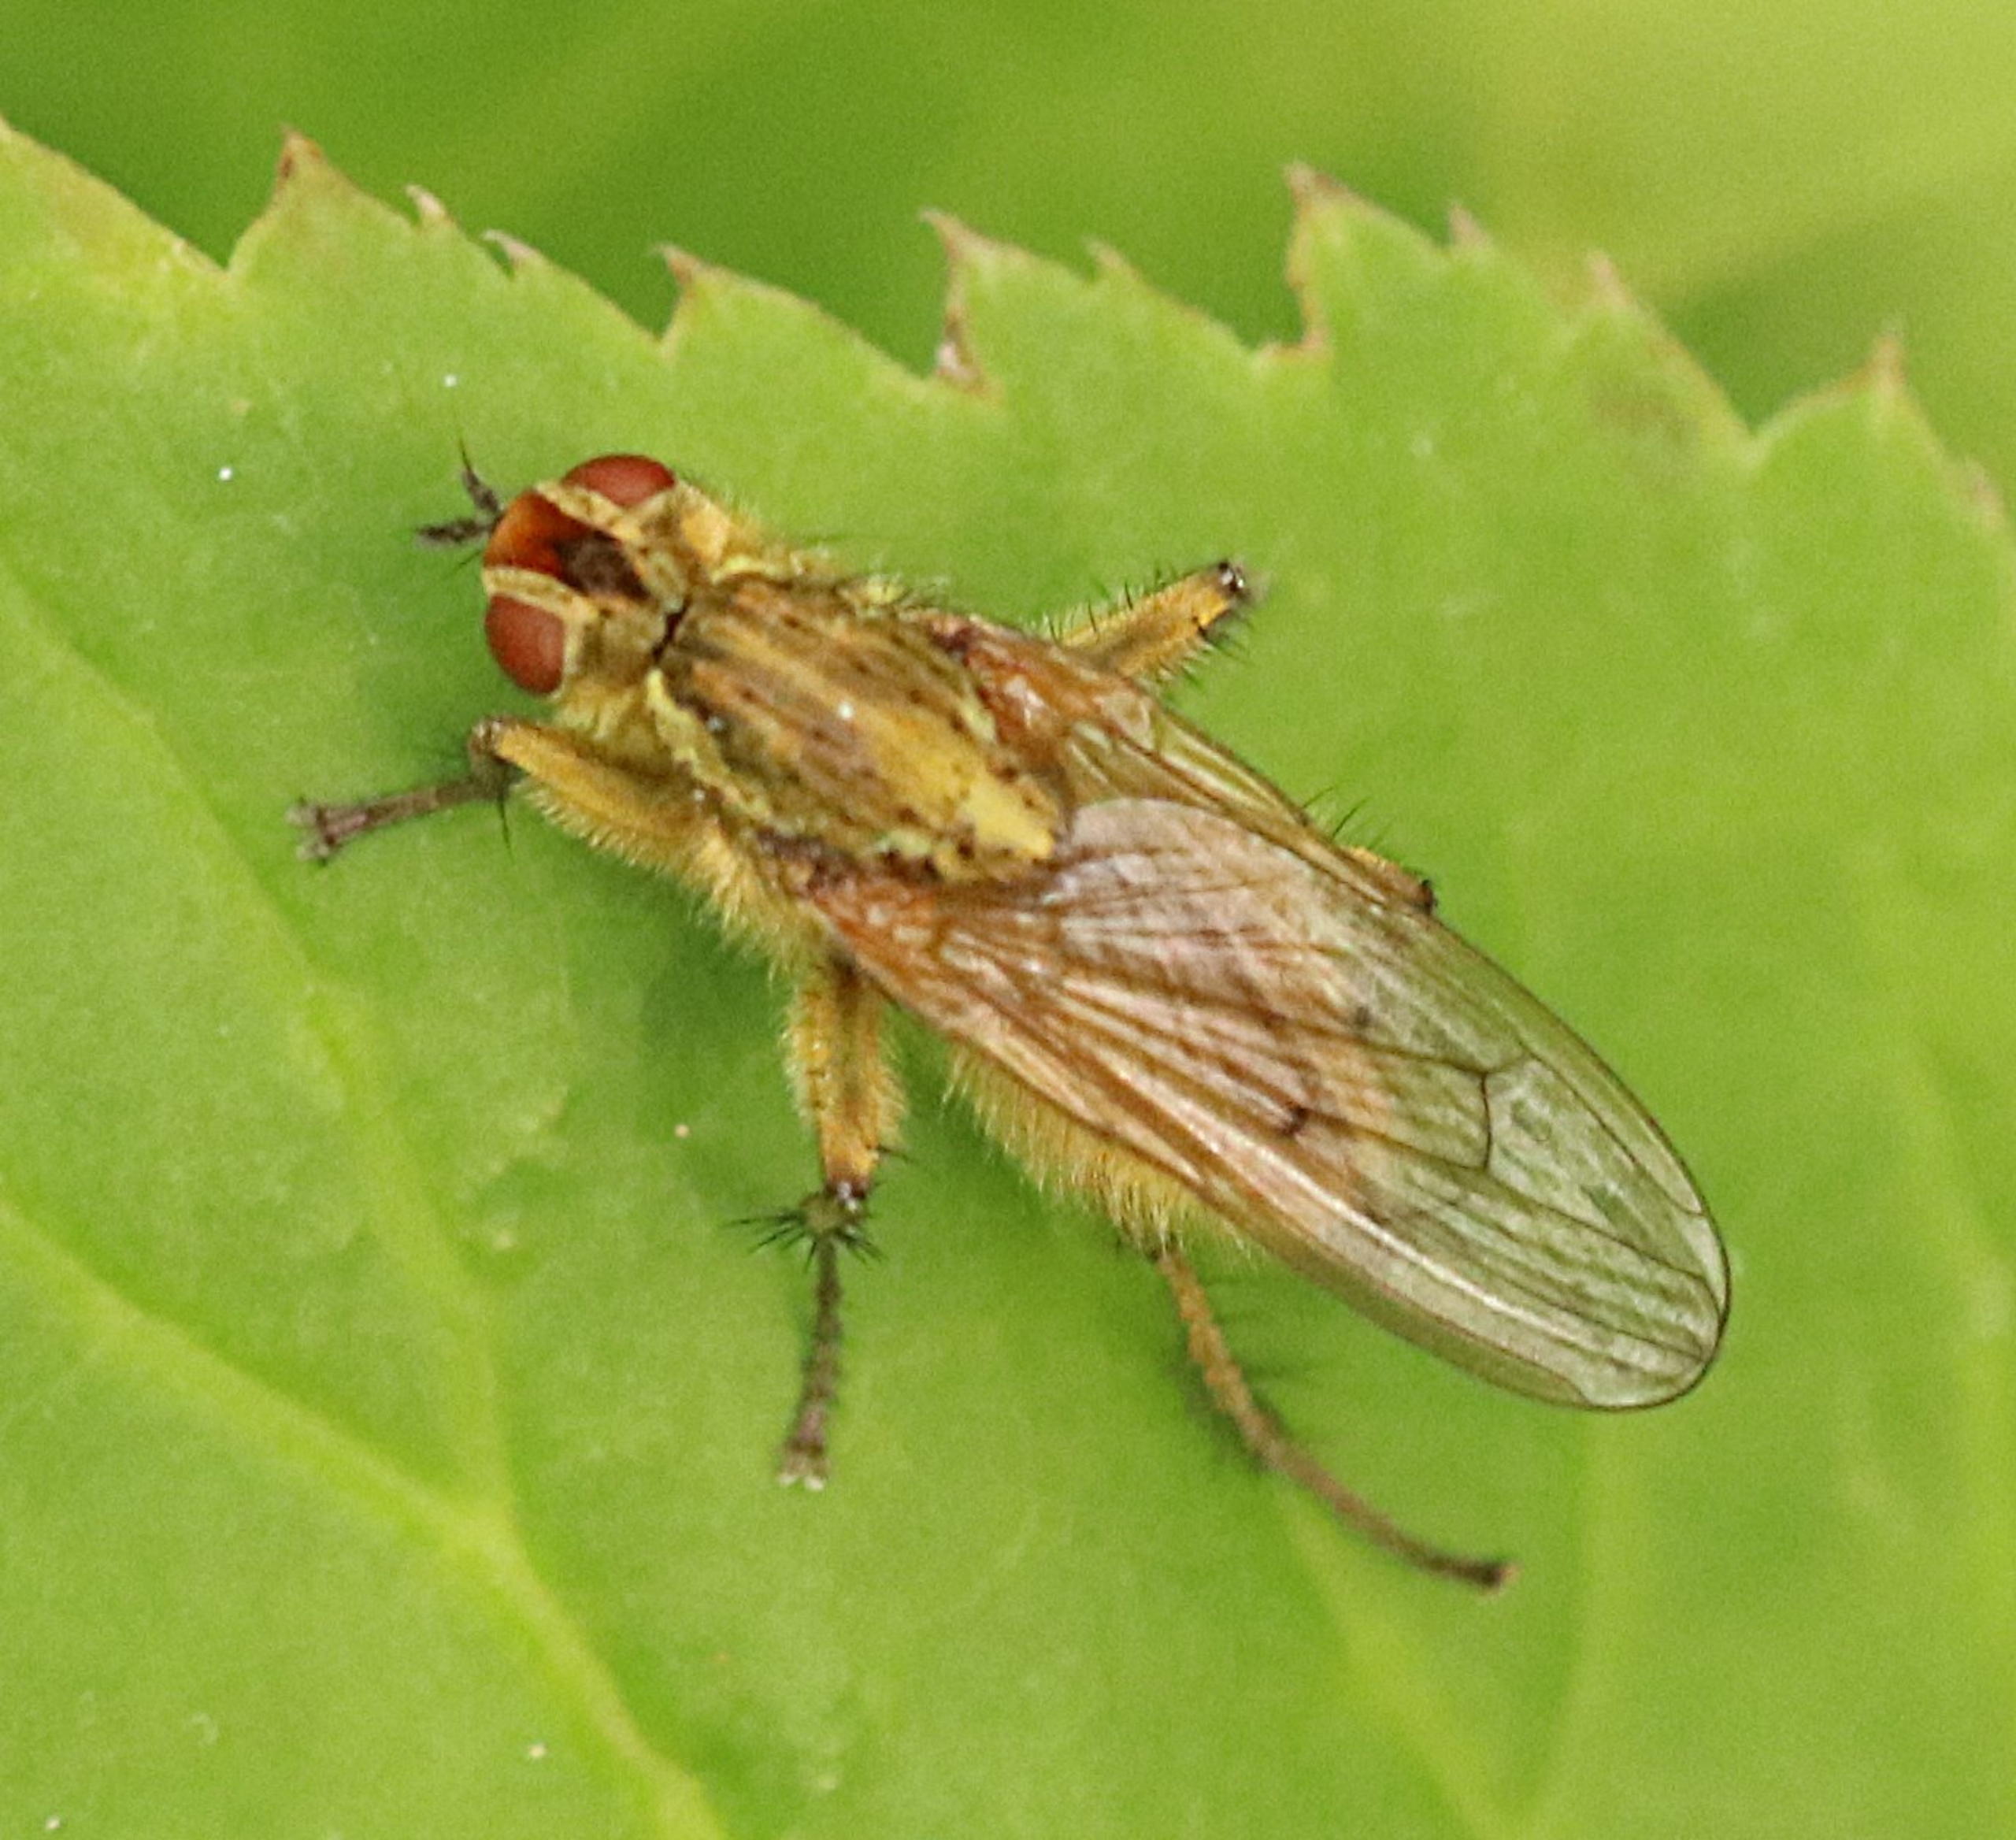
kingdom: Animalia
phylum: Arthropoda
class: Insecta
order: Diptera
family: Scathophagidae
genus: Scathophaga
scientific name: Scathophaga stercoraria
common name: Almindelig gødningsflue
